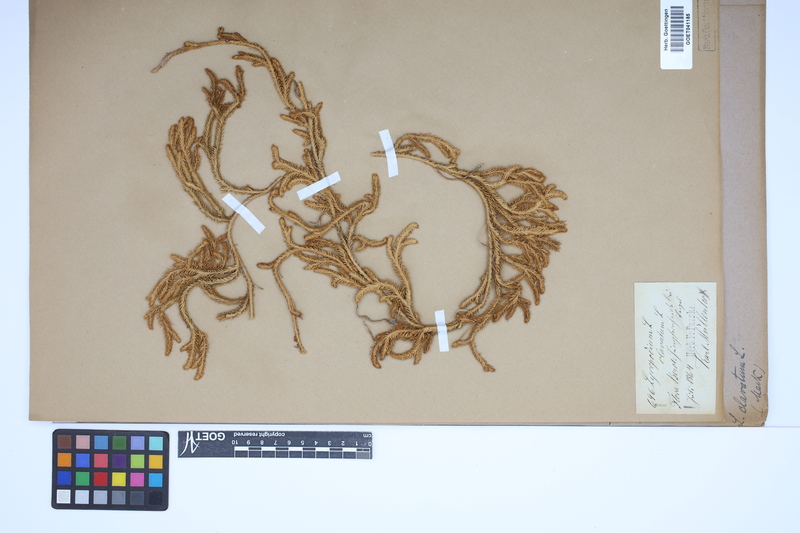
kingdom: Plantae
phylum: Tracheophyta
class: Lycopodiopsida
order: Lycopodiales
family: Lycopodiaceae
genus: Lycopodium
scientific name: Lycopodium clavatum
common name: Stag's-horn clubmoss
